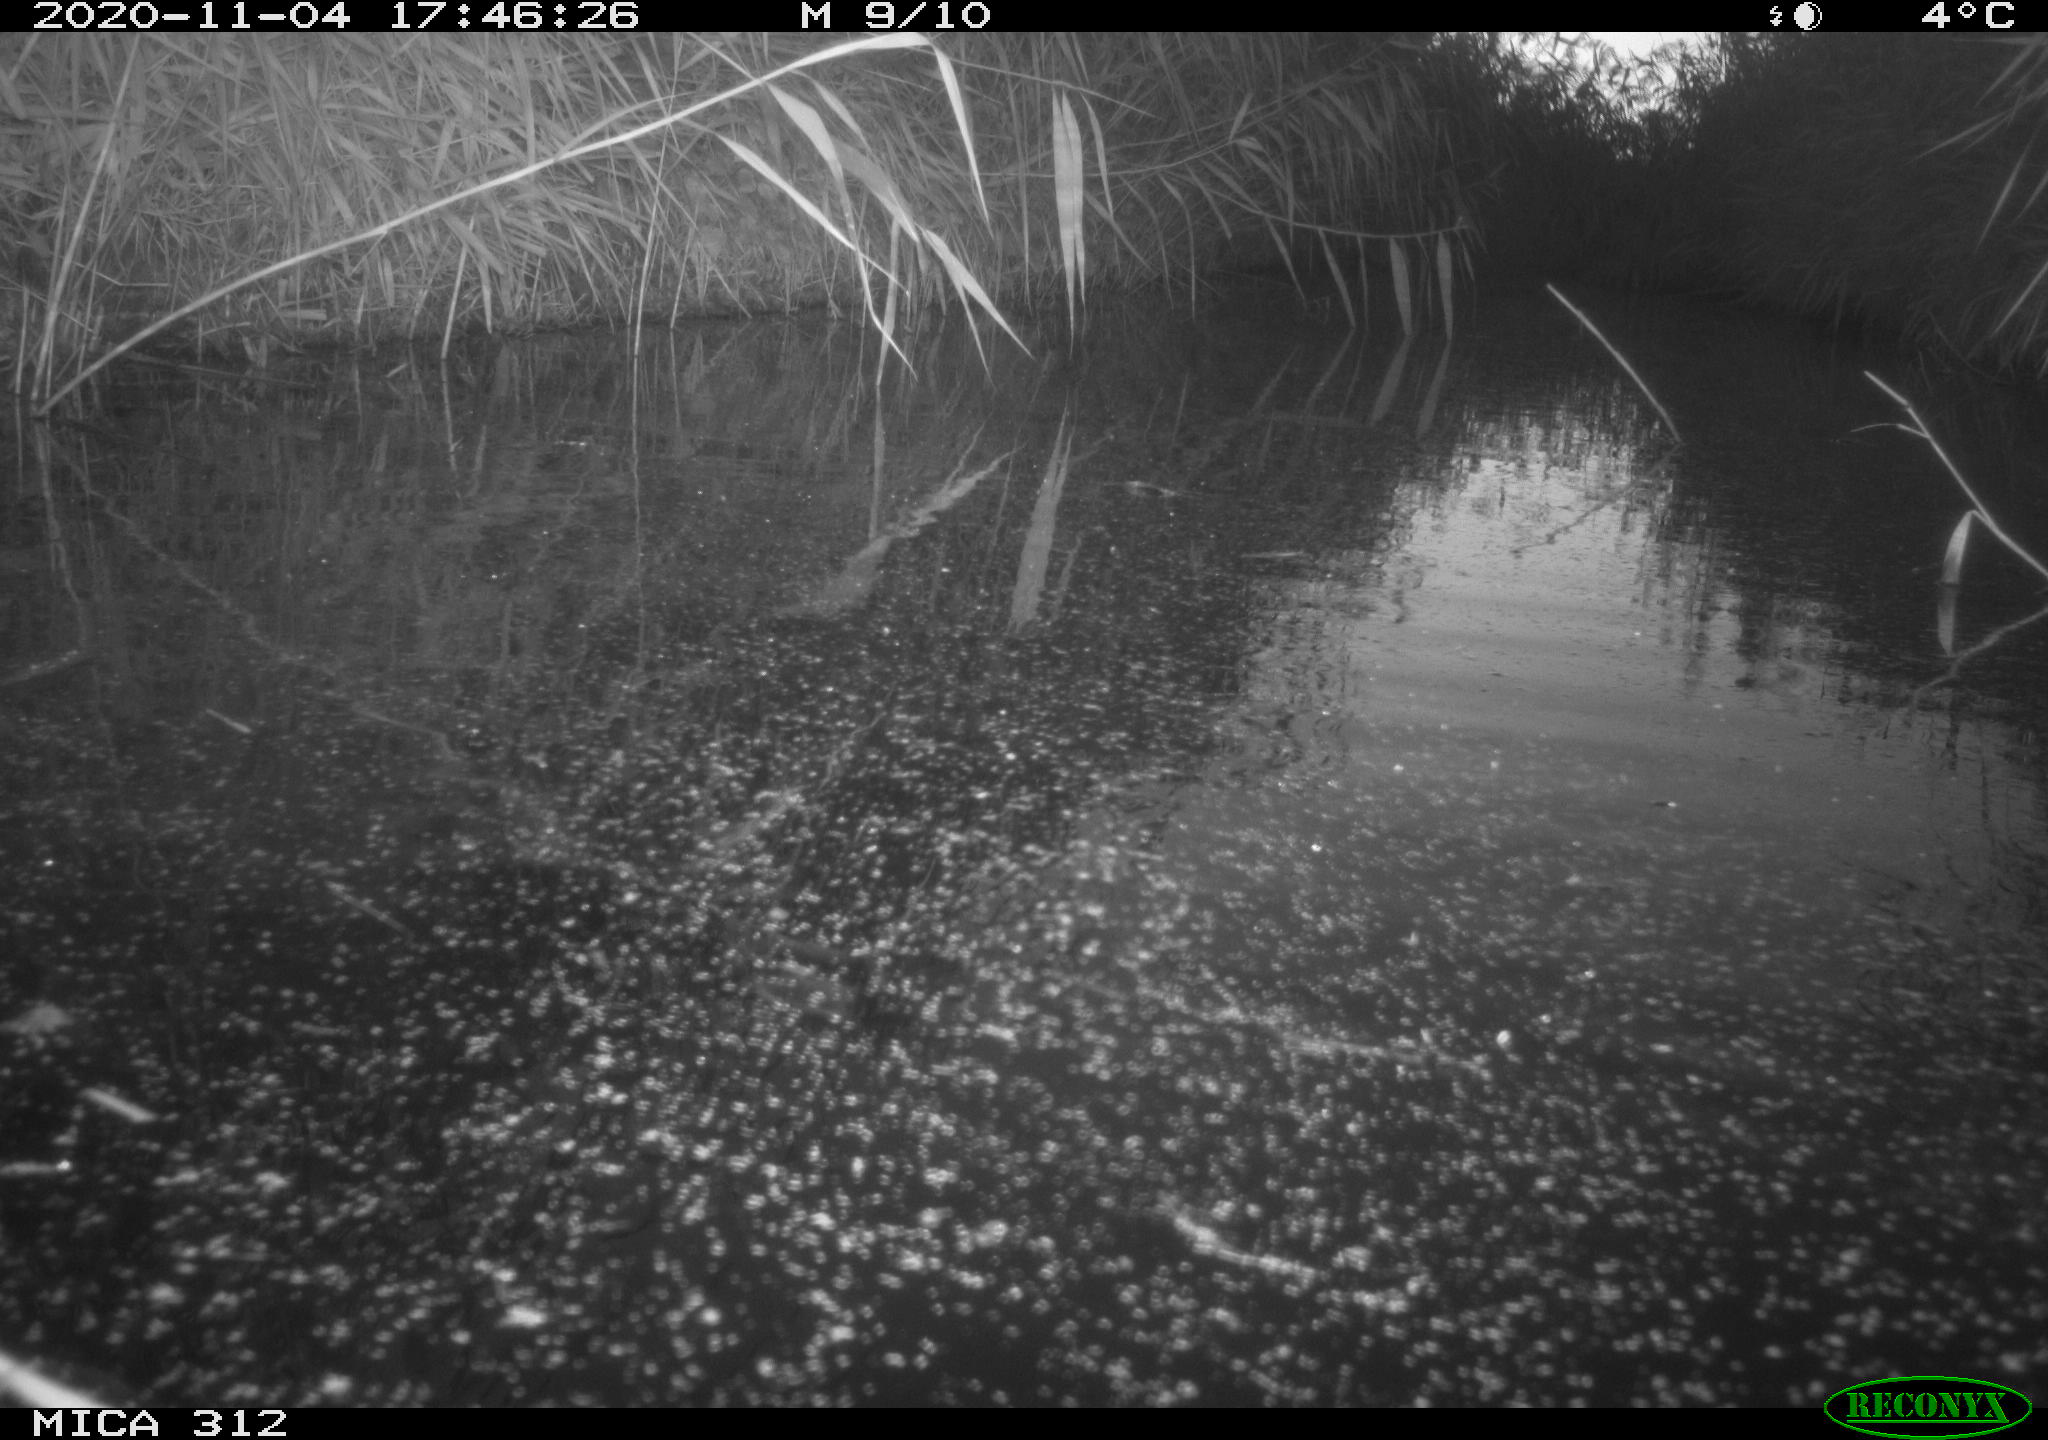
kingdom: Animalia
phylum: Chordata
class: Mammalia
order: Rodentia
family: Muridae
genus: Rattus
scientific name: Rattus norvegicus
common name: Brown rat
